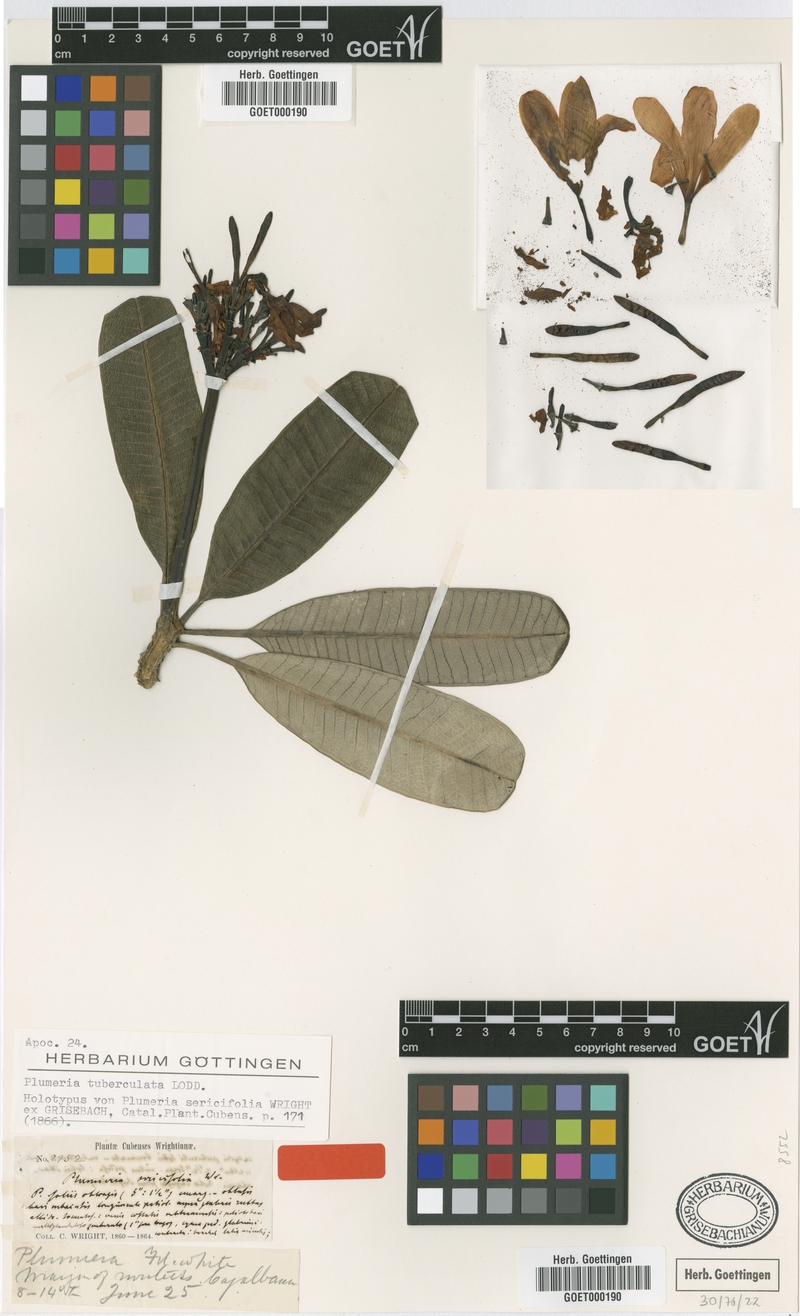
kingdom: Plantae
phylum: Tracheophyta
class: Magnoliopsida
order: Gentianales
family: Apocynaceae
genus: Plumeria
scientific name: Plumeria tuberculata
